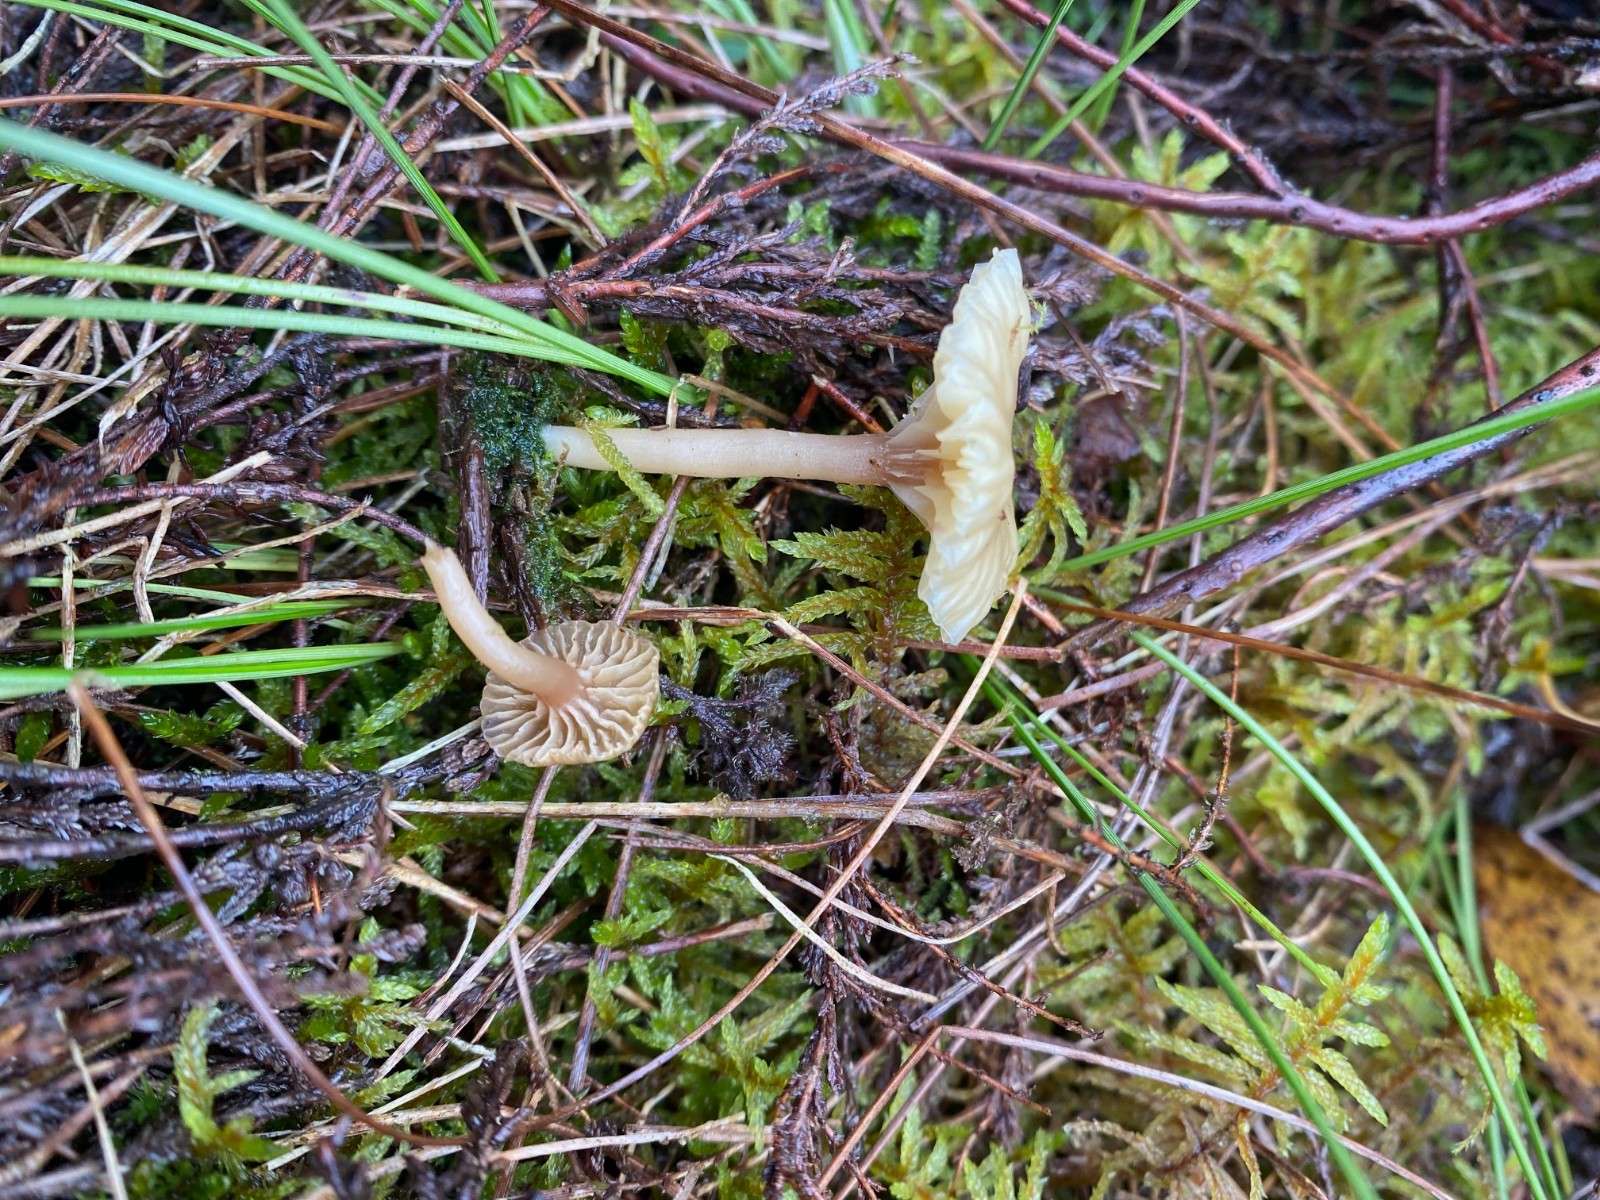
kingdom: Fungi
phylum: Basidiomycota
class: Agaricomycetes
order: Agaricales
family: Hygrophoraceae
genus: Lichenomphalia
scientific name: Lichenomphalia umbellifera
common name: tørve-lavhat
